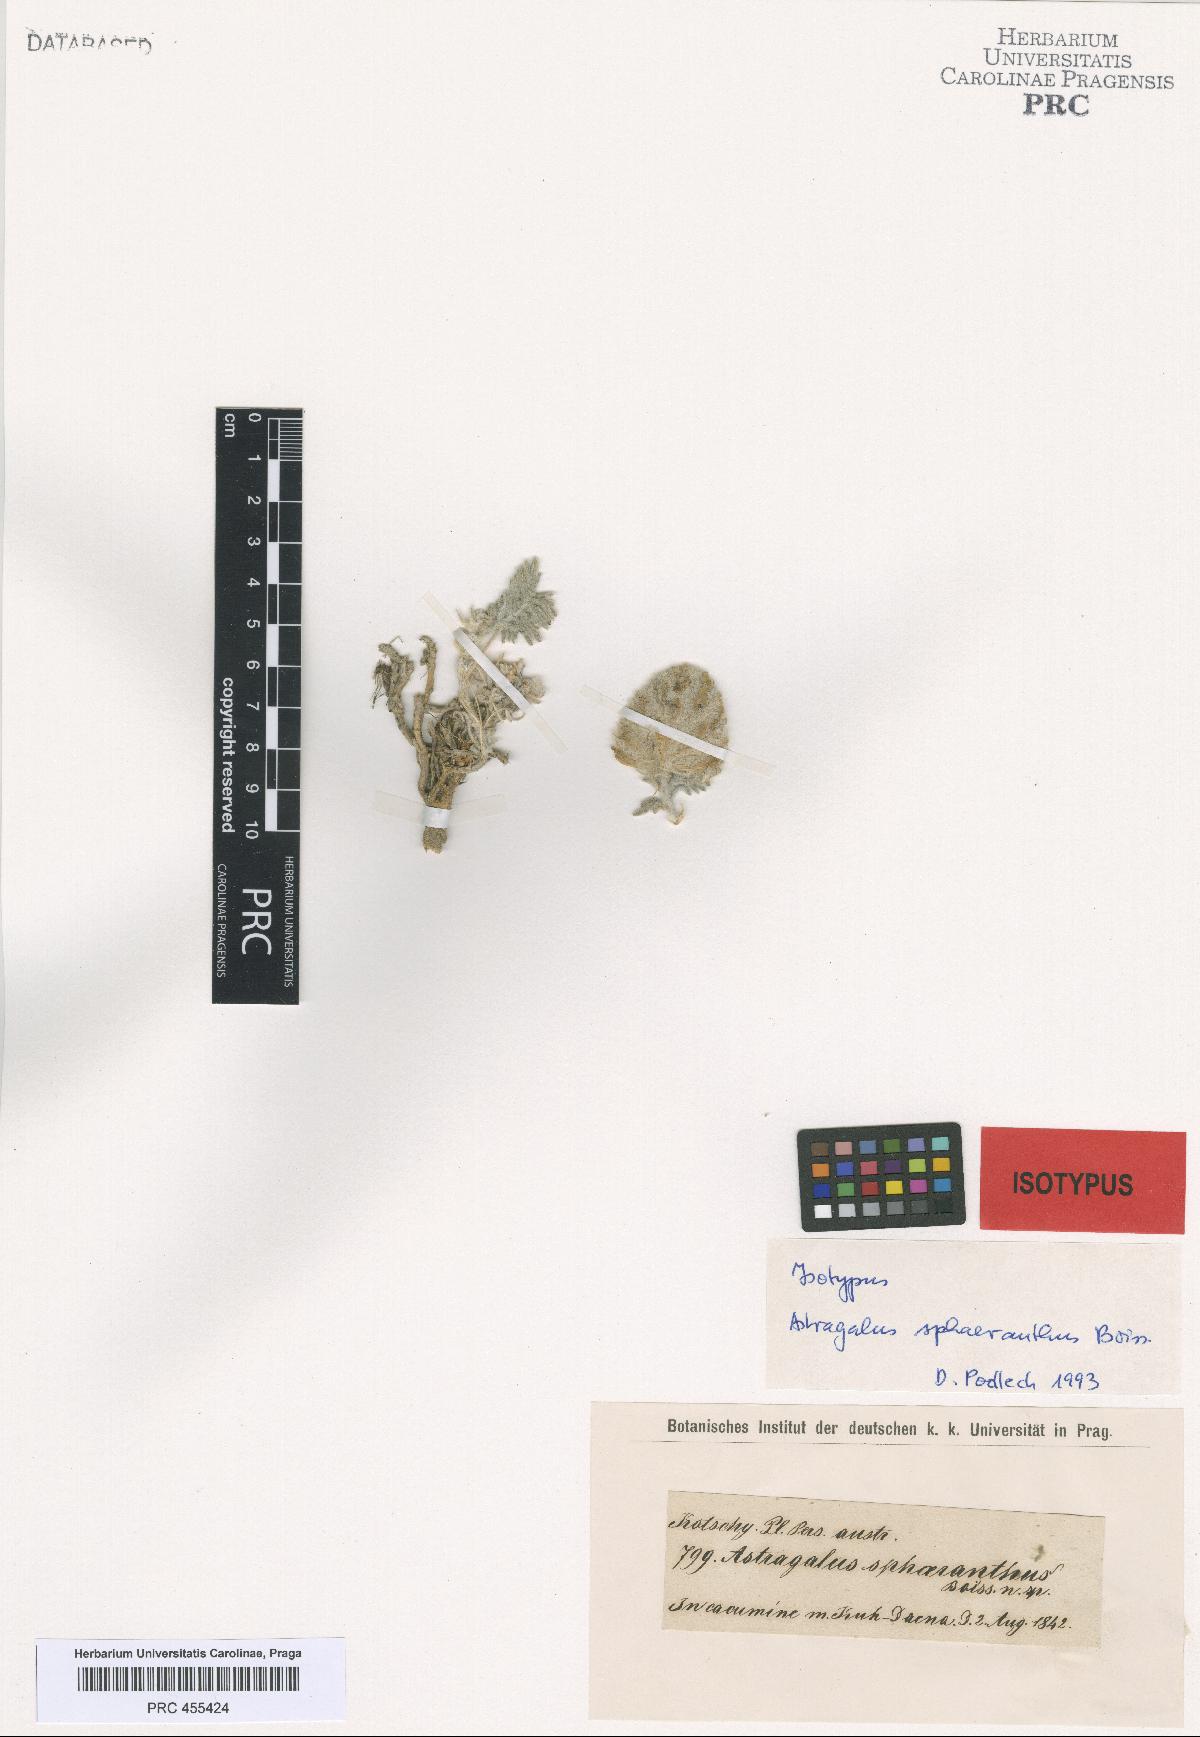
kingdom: Plantae
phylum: Tracheophyta
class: Magnoliopsida
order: Fabales
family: Fabaceae
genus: Astragalus
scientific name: Astragalus sphaeranthus
